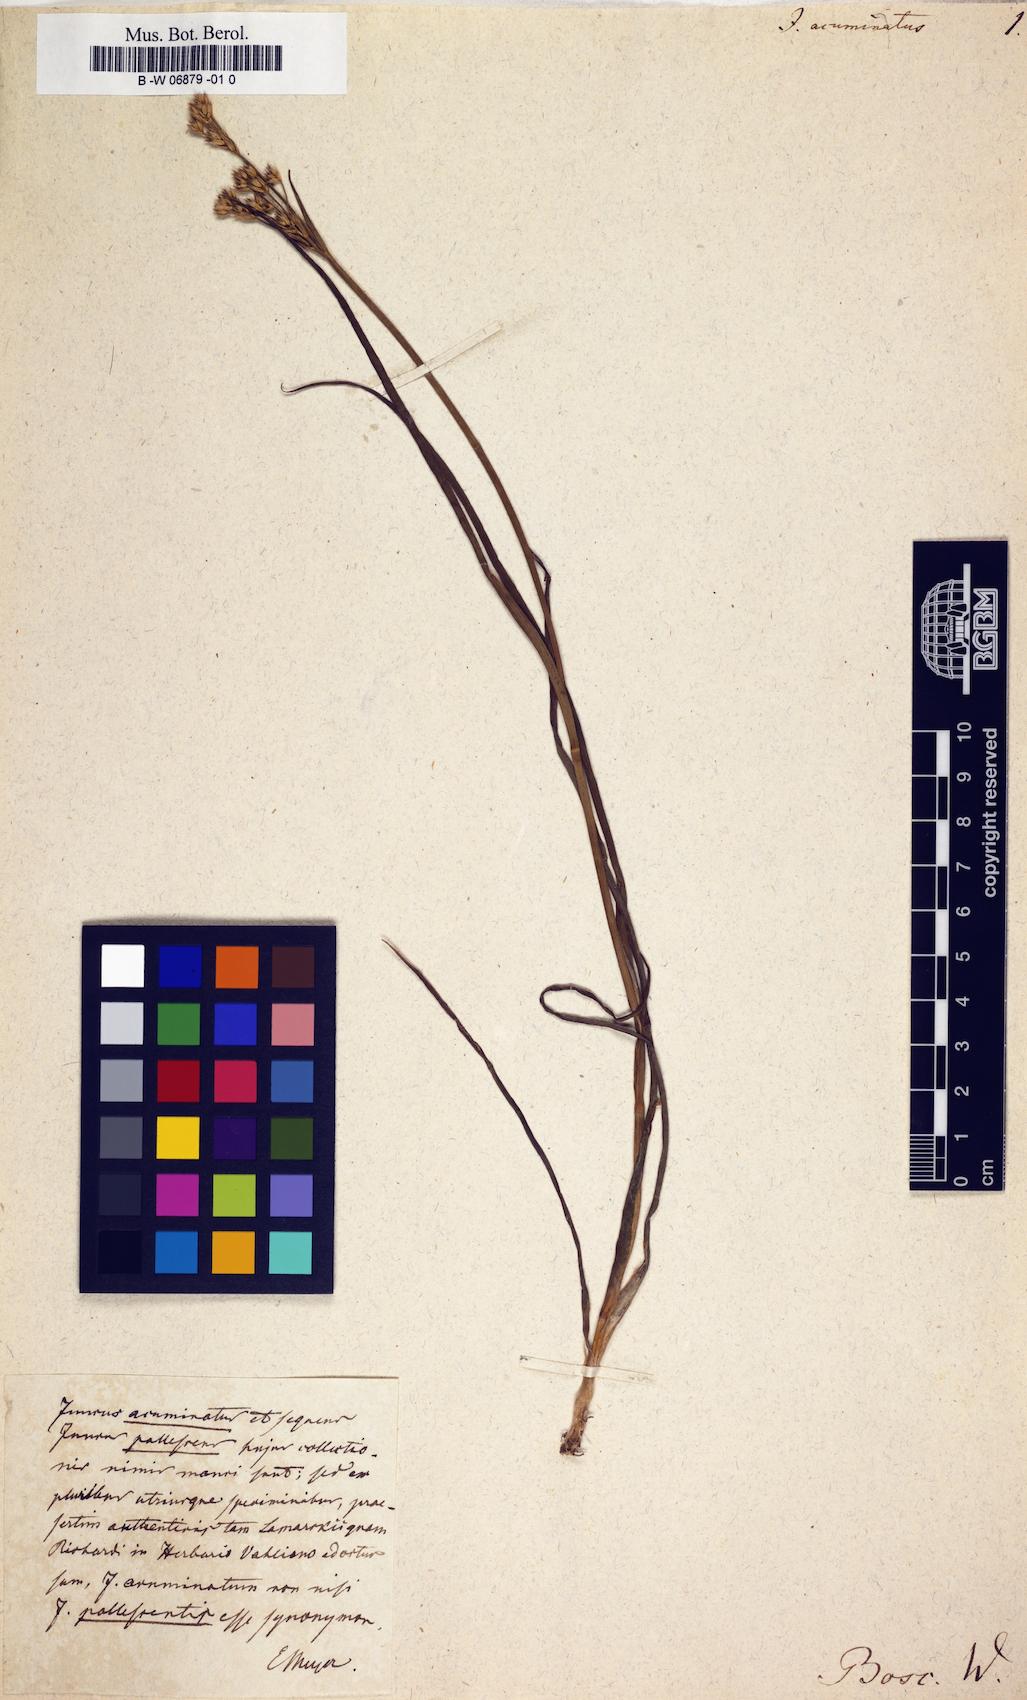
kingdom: Plantae
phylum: Tracheophyta
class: Liliopsida
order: Poales
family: Juncaceae
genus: Juncus
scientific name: Juncus acuminatus
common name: Knotty-leaved rush
